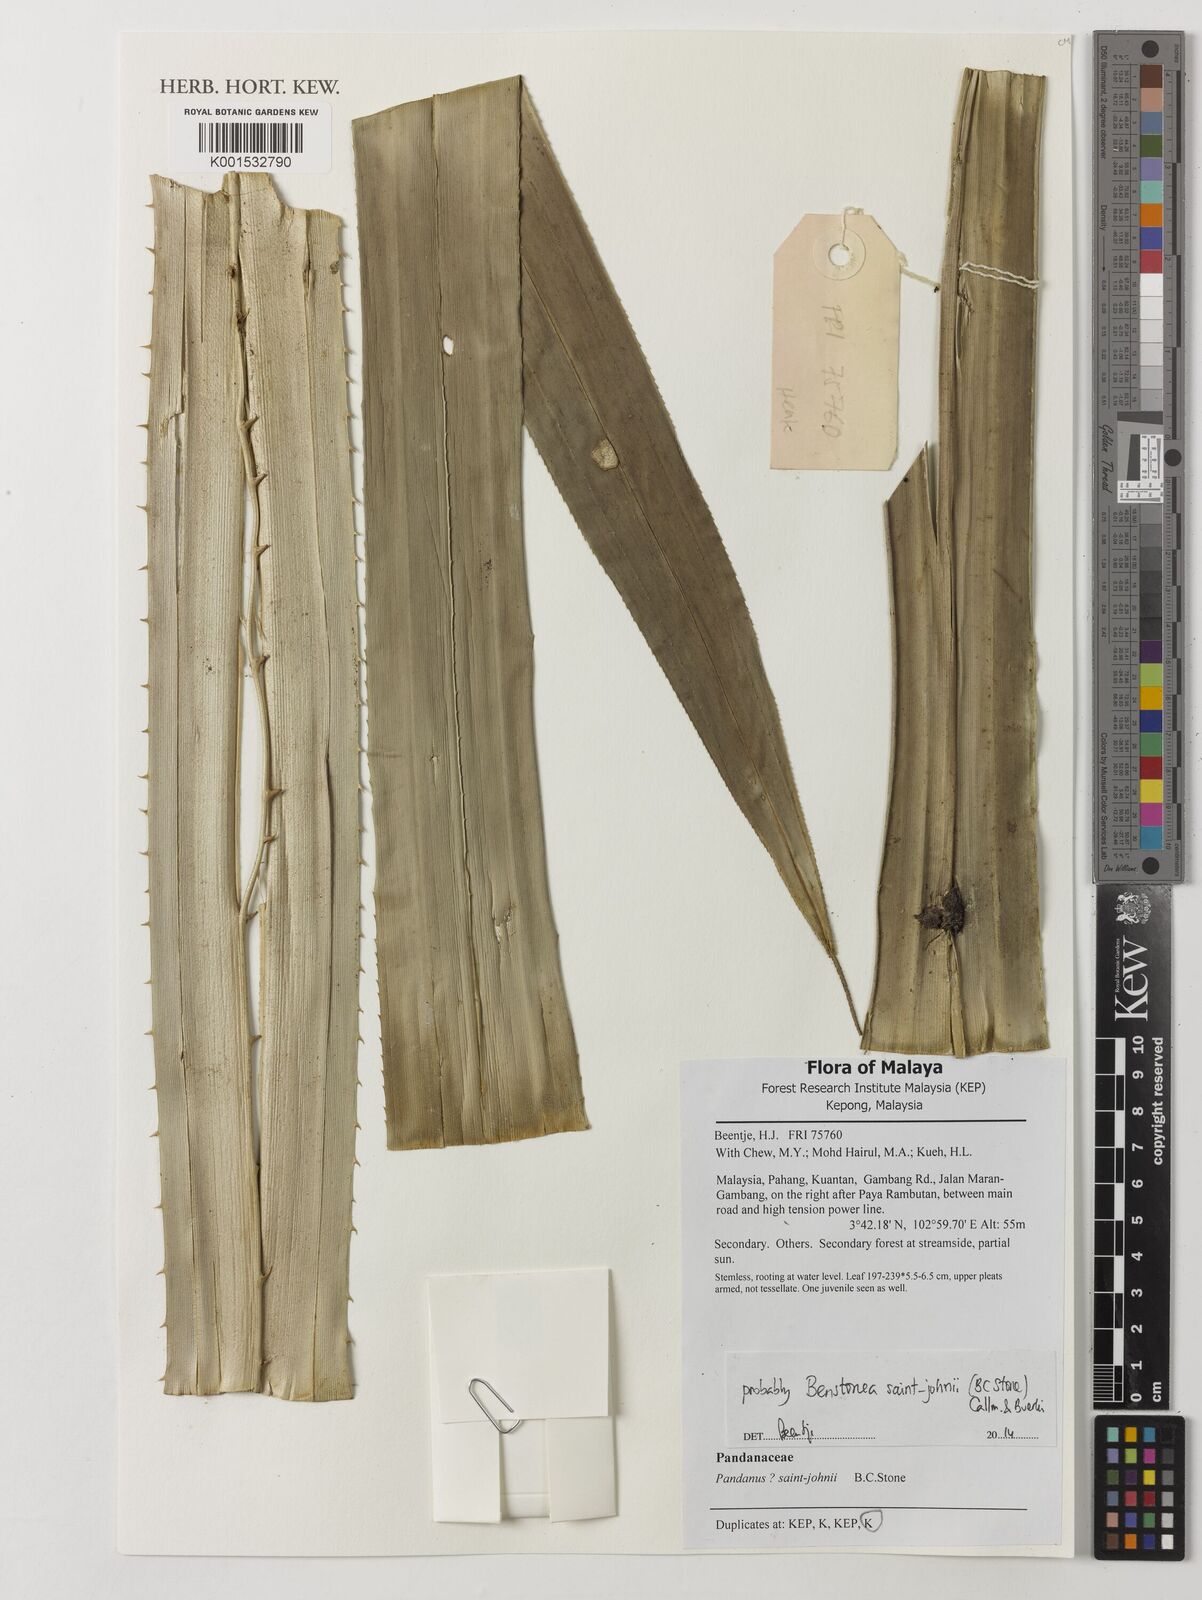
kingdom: Plantae
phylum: Tracheophyta
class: Liliopsida
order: Pandanales
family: Pandanaceae
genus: Benstonea
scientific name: Benstonea saint-johnii
